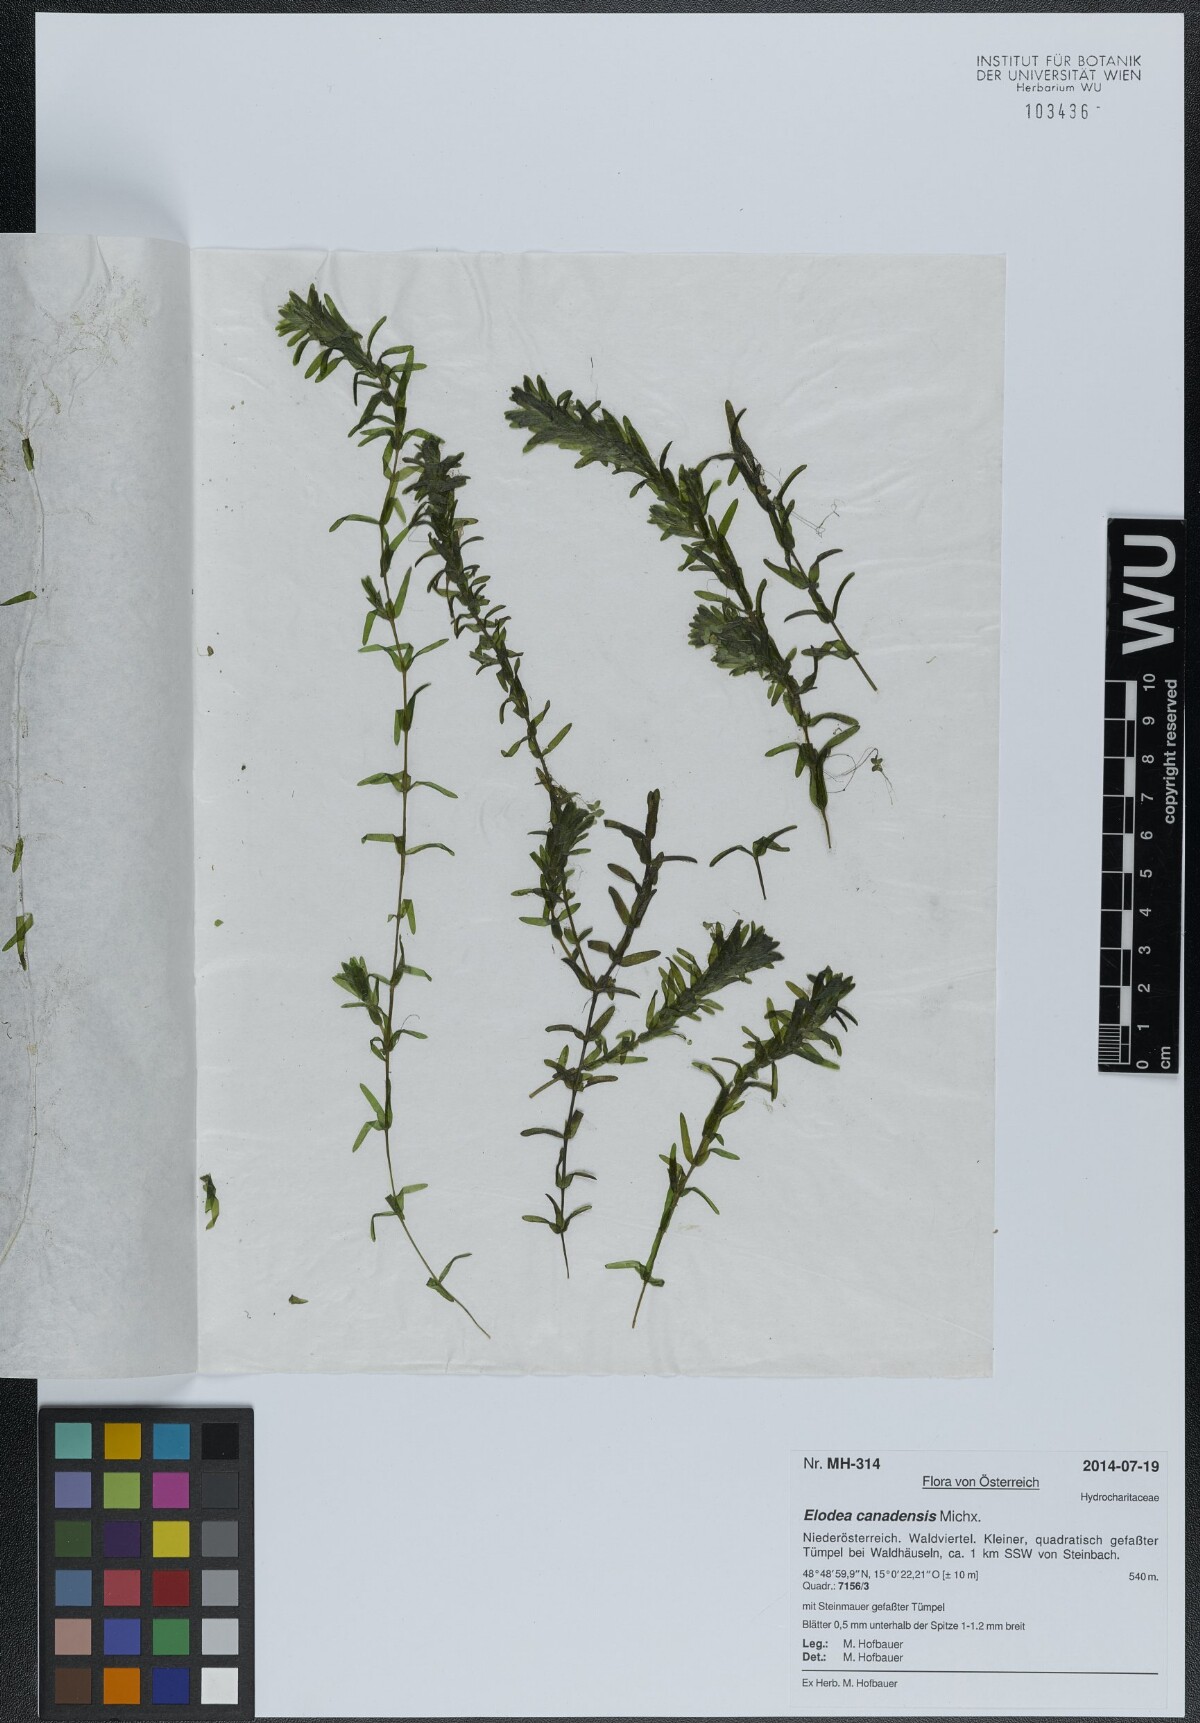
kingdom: Plantae
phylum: Tracheophyta
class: Liliopsida
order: Alismatales
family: Hydrocharitaceae
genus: Elodea
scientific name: Elodea canadensis
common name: Canadian waterweed
